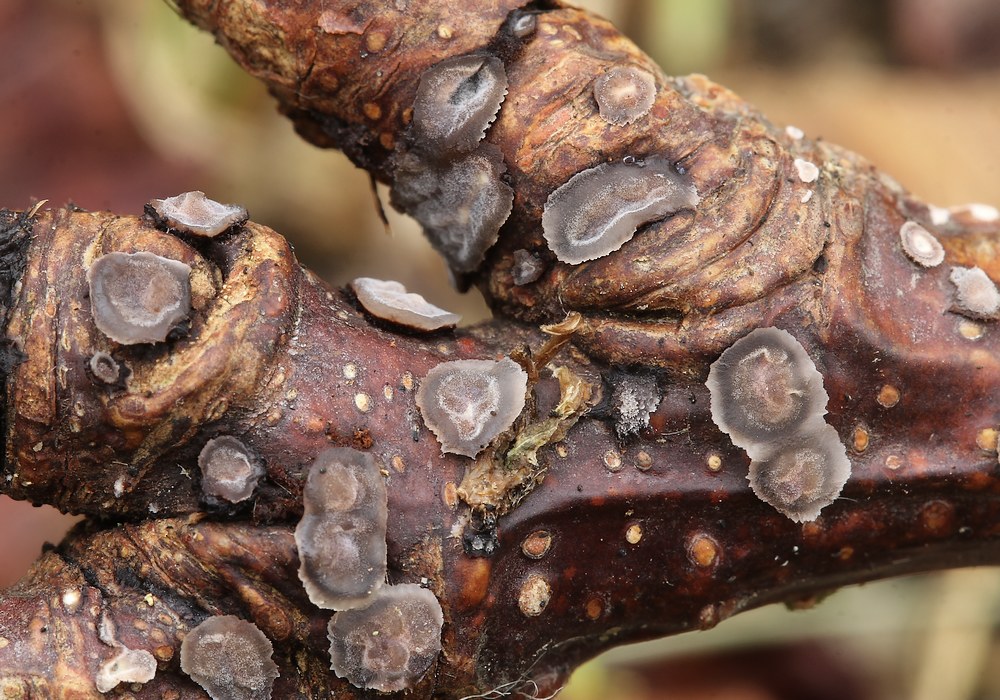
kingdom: Fungi
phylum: Basidiomycota
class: Agaricomycetes
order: Russulales
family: Peniophoraceae
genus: Peniophora
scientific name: Peniophora quercina
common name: ege-voksskind
